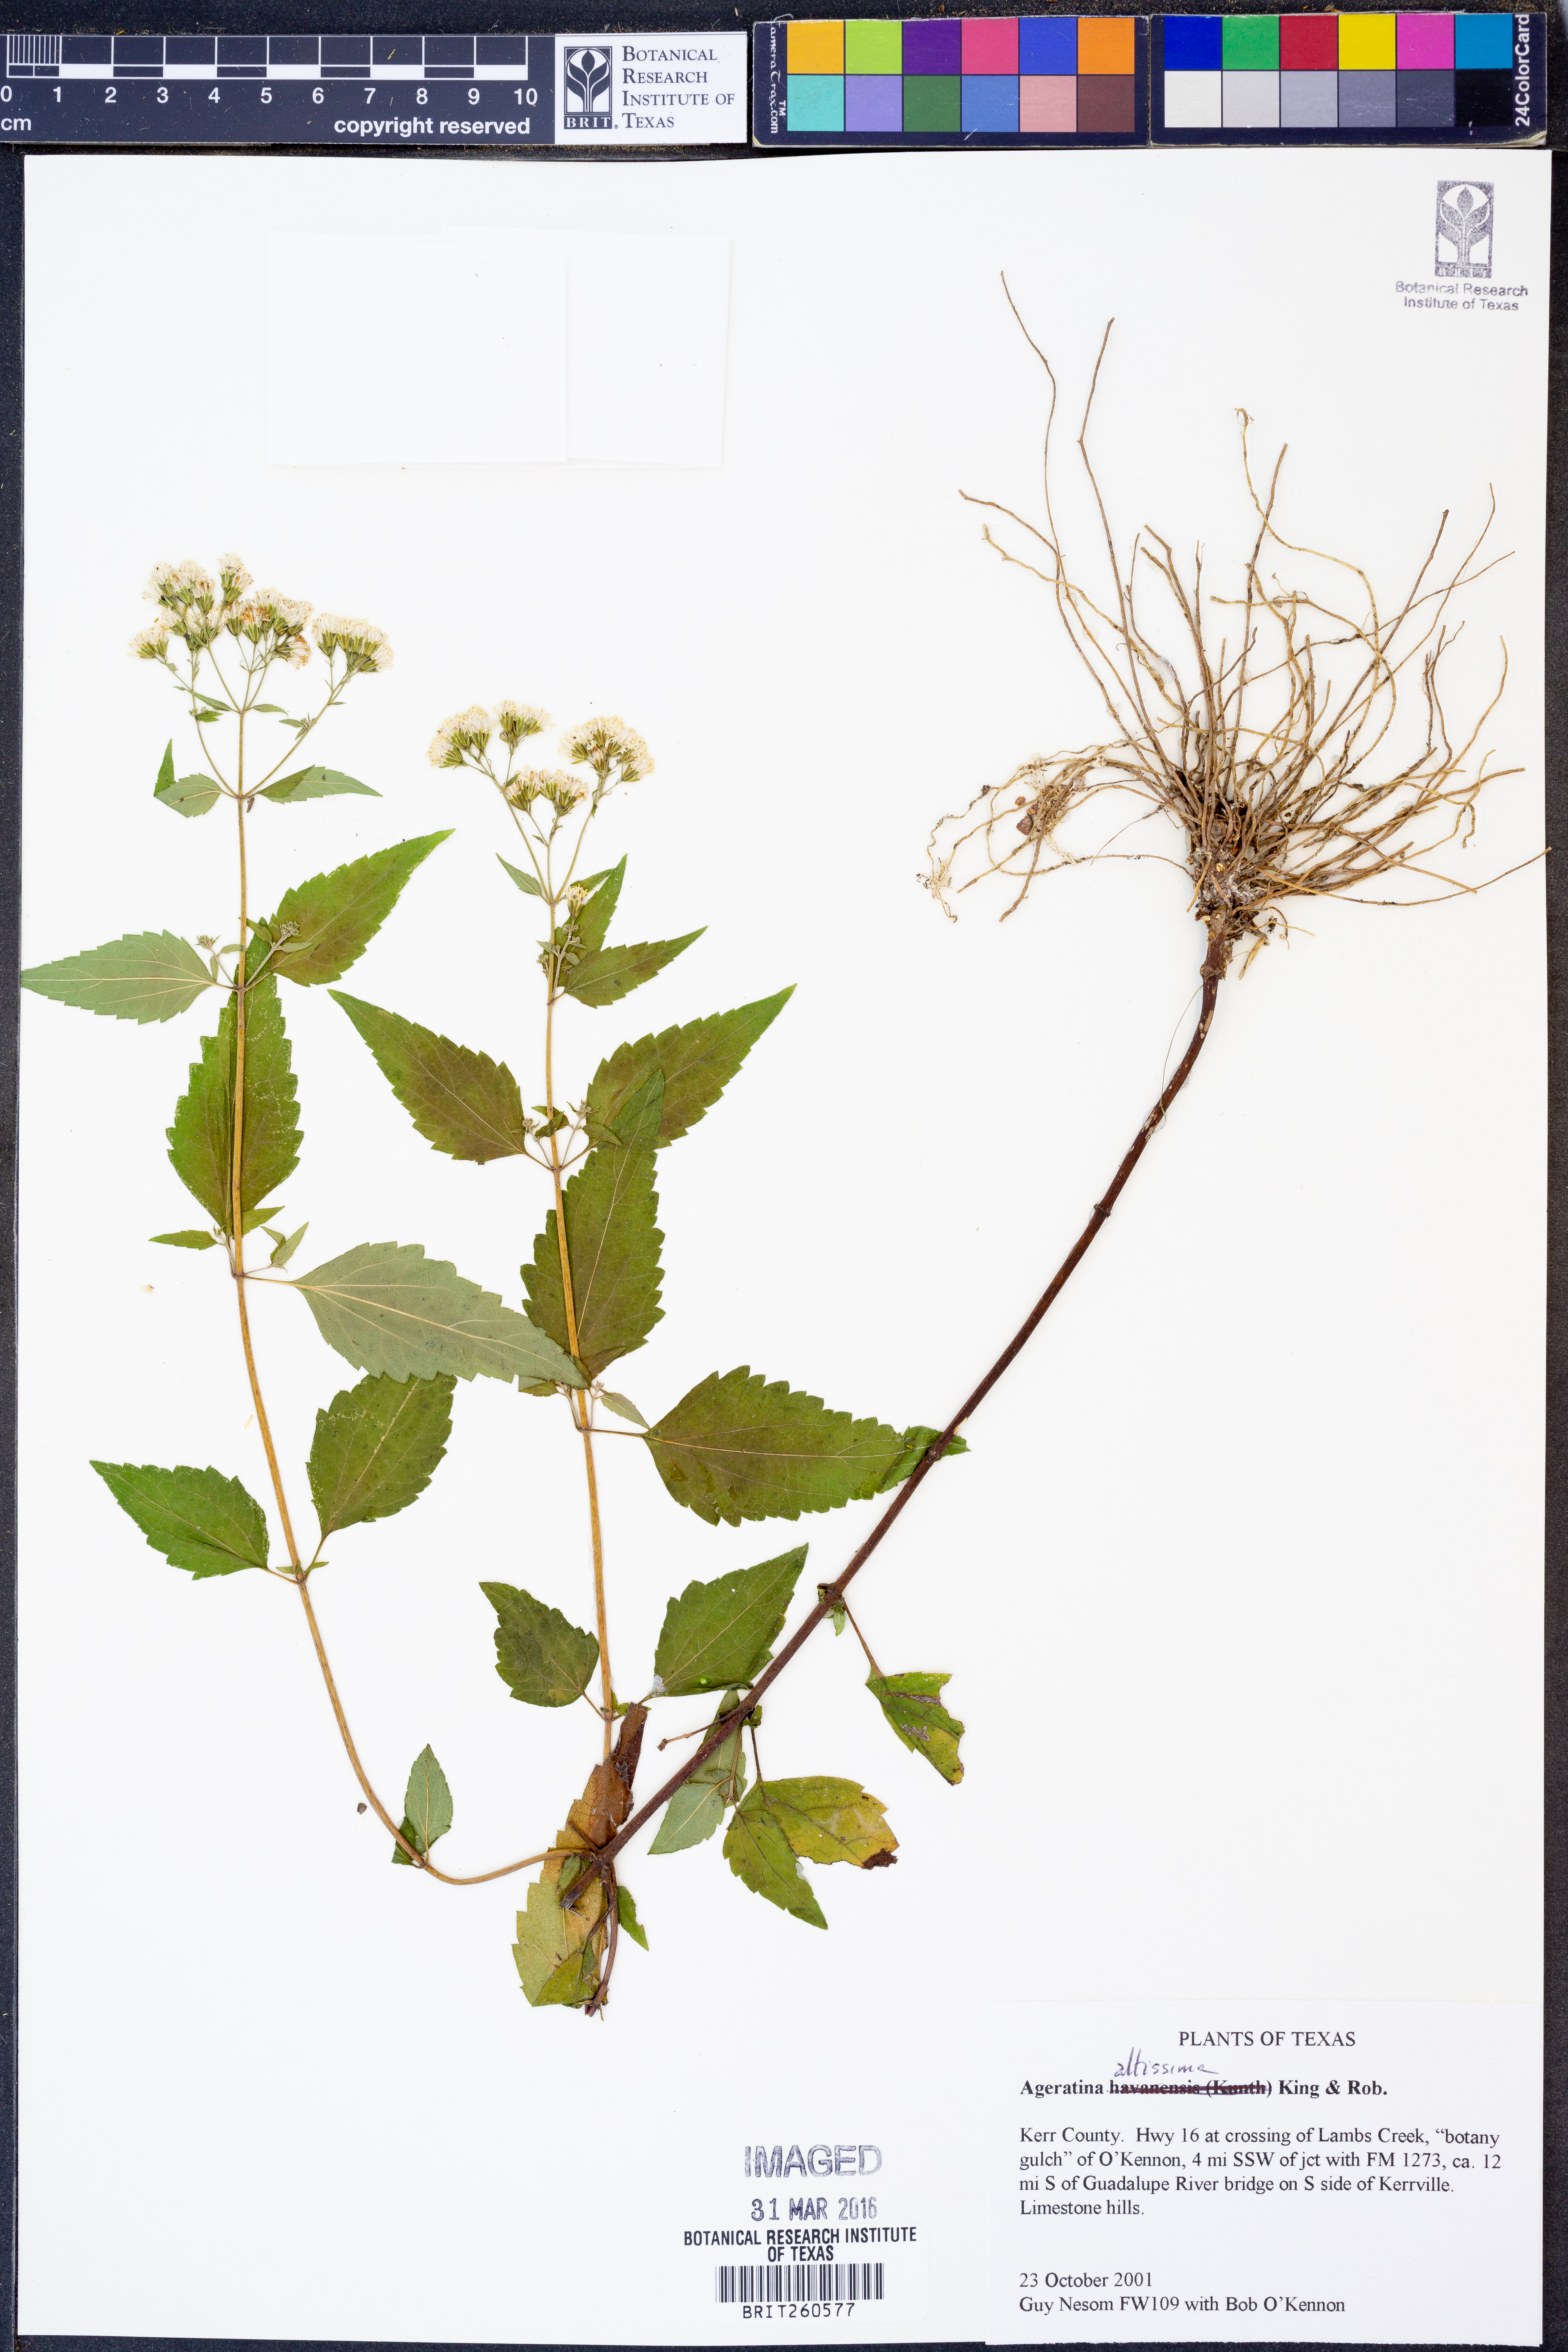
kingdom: Plantae
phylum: Tracheophyta
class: Magnoliopsida
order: Asterales
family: Asteraceae
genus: Ageratina
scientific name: Ageratina altissima
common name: White snakeroot
